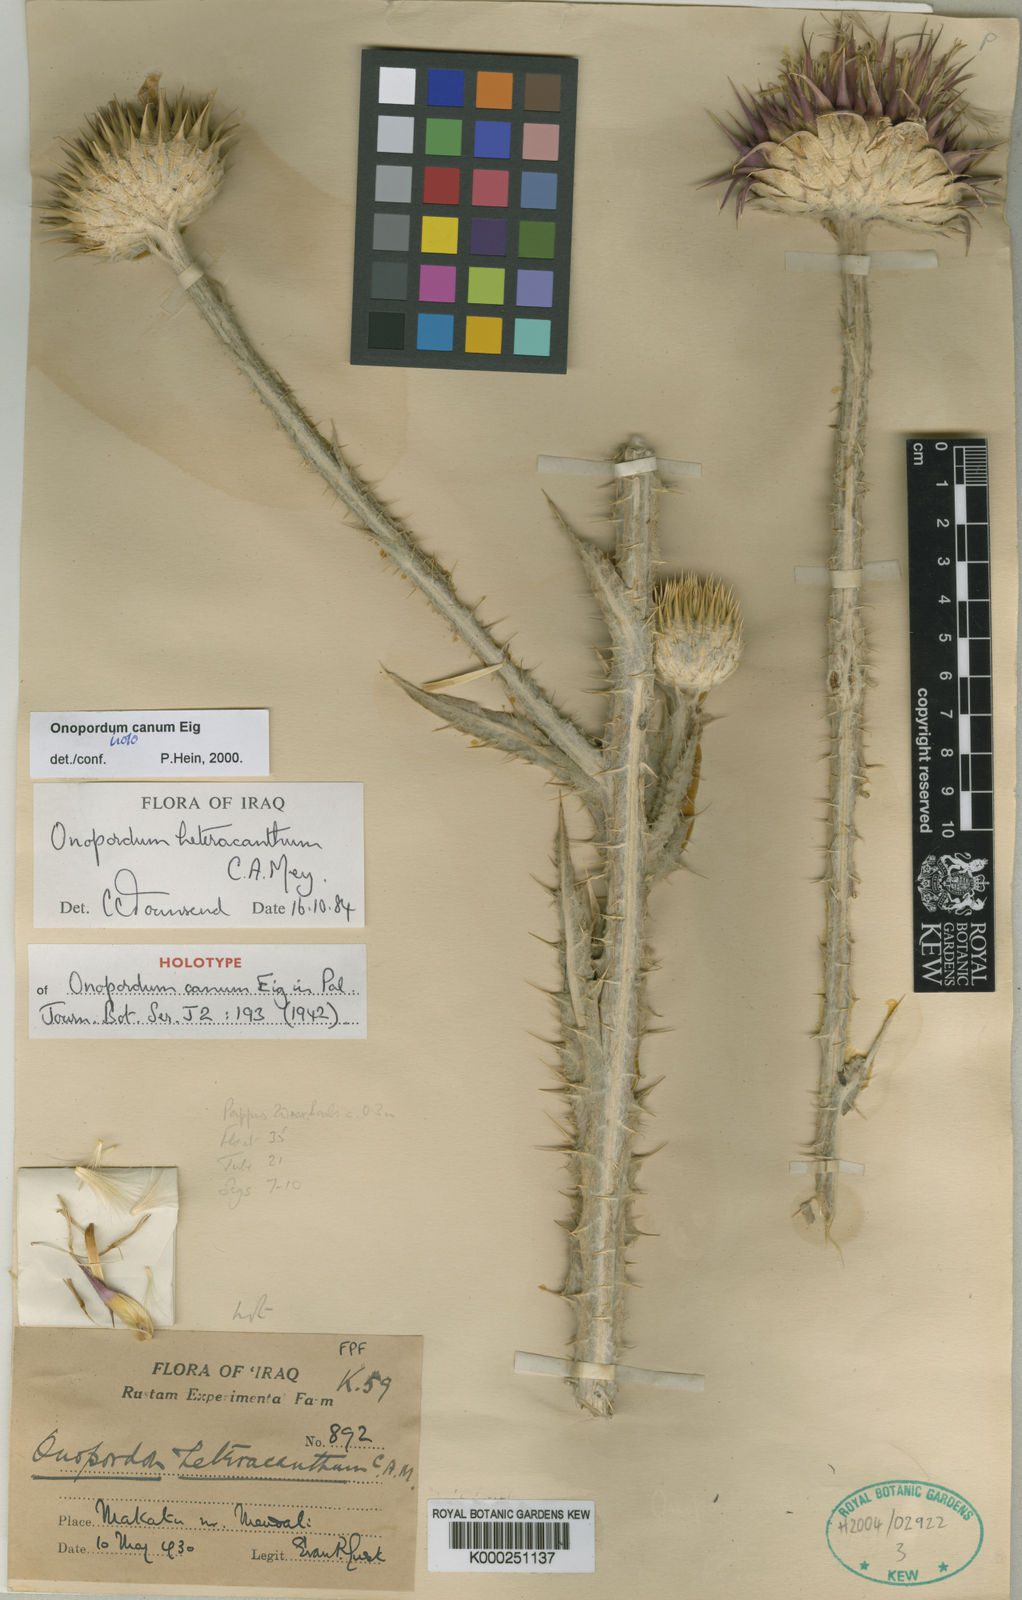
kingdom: Plantae
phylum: Tracheophyta
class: Magnoliopsida
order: Asterales
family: Asteraceae
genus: Onopordum
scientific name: Onopordum heteracanthum
